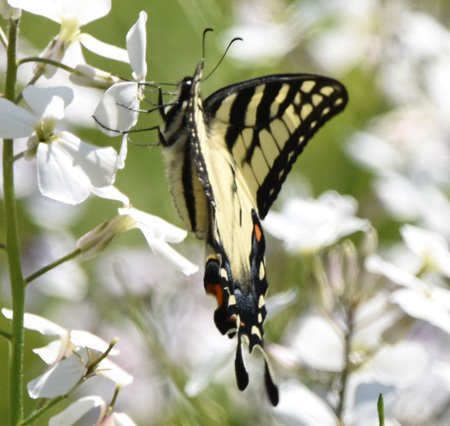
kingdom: Animalia
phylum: Arthropoda
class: Insecta
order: Lepidoptera
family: Papilionidae
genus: Pterourus
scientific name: Pterourus glaucus
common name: Eastern Tiger Swallowtail
